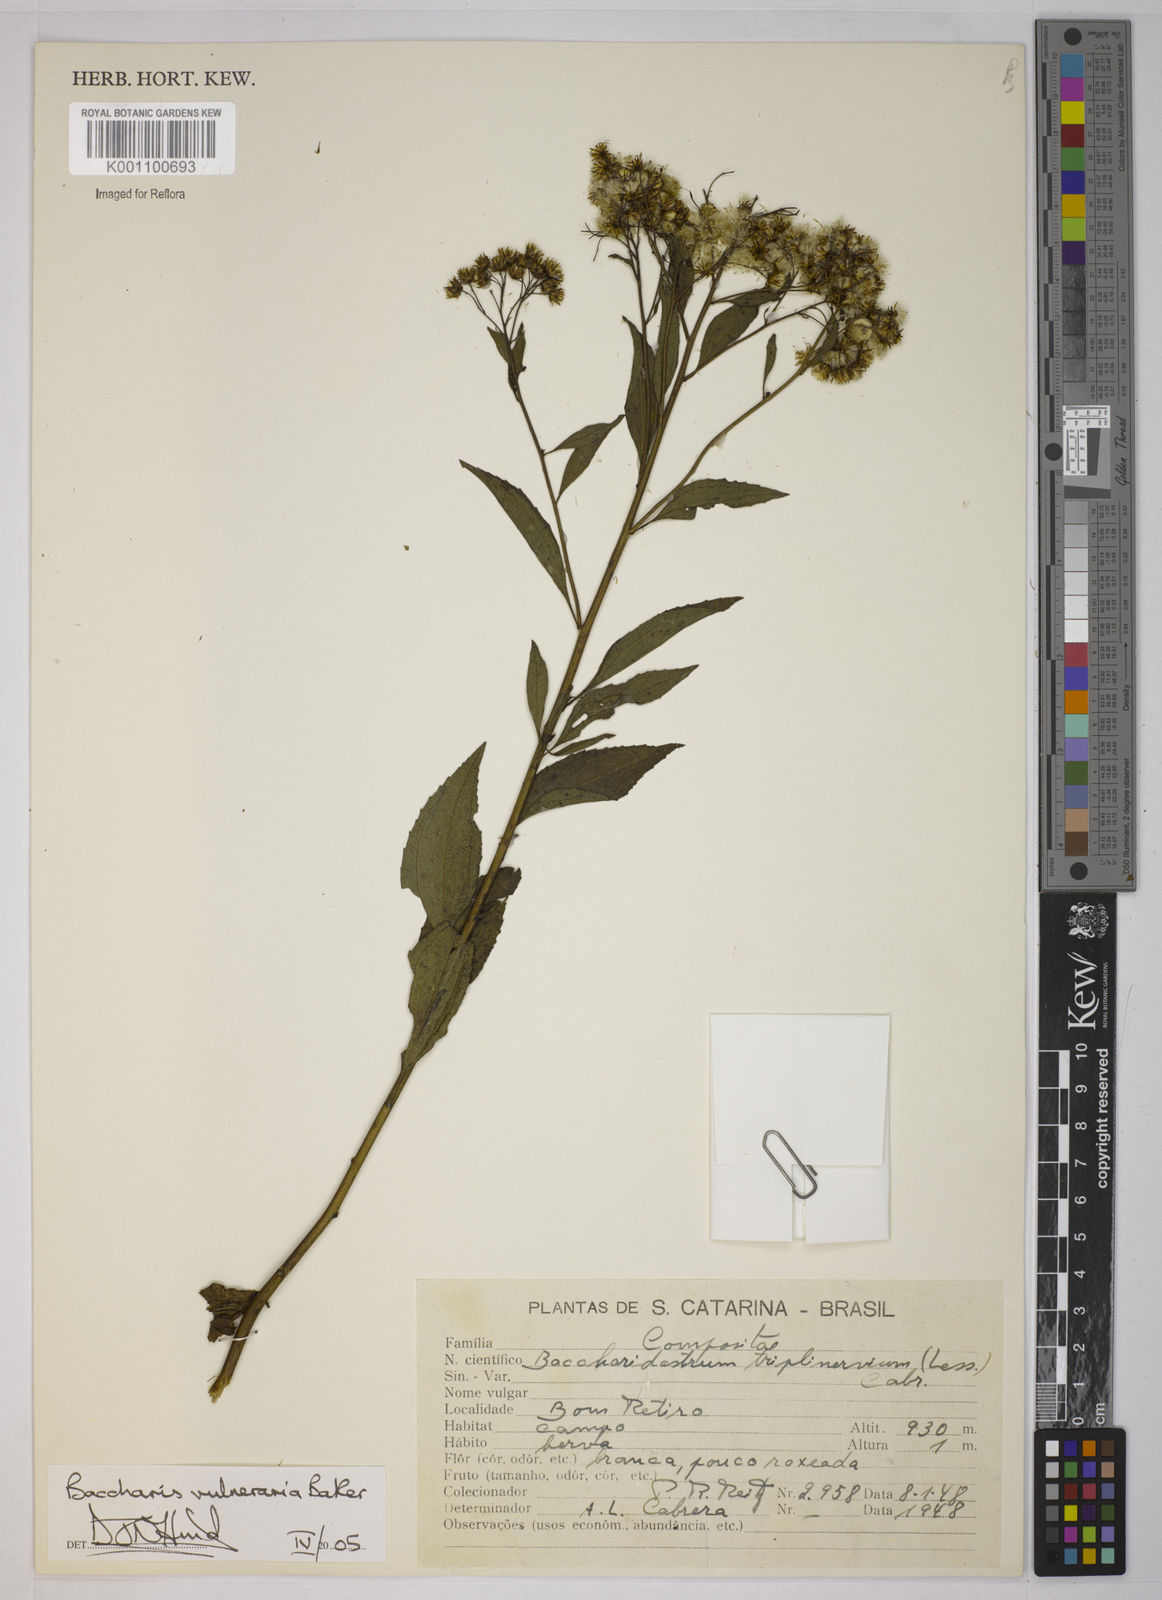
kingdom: Plantae
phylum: Tracheophyta
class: Magnoliopsida
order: Asterales
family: Asteraceae
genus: Archibaccharis
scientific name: Archibaccharis vulneraria
